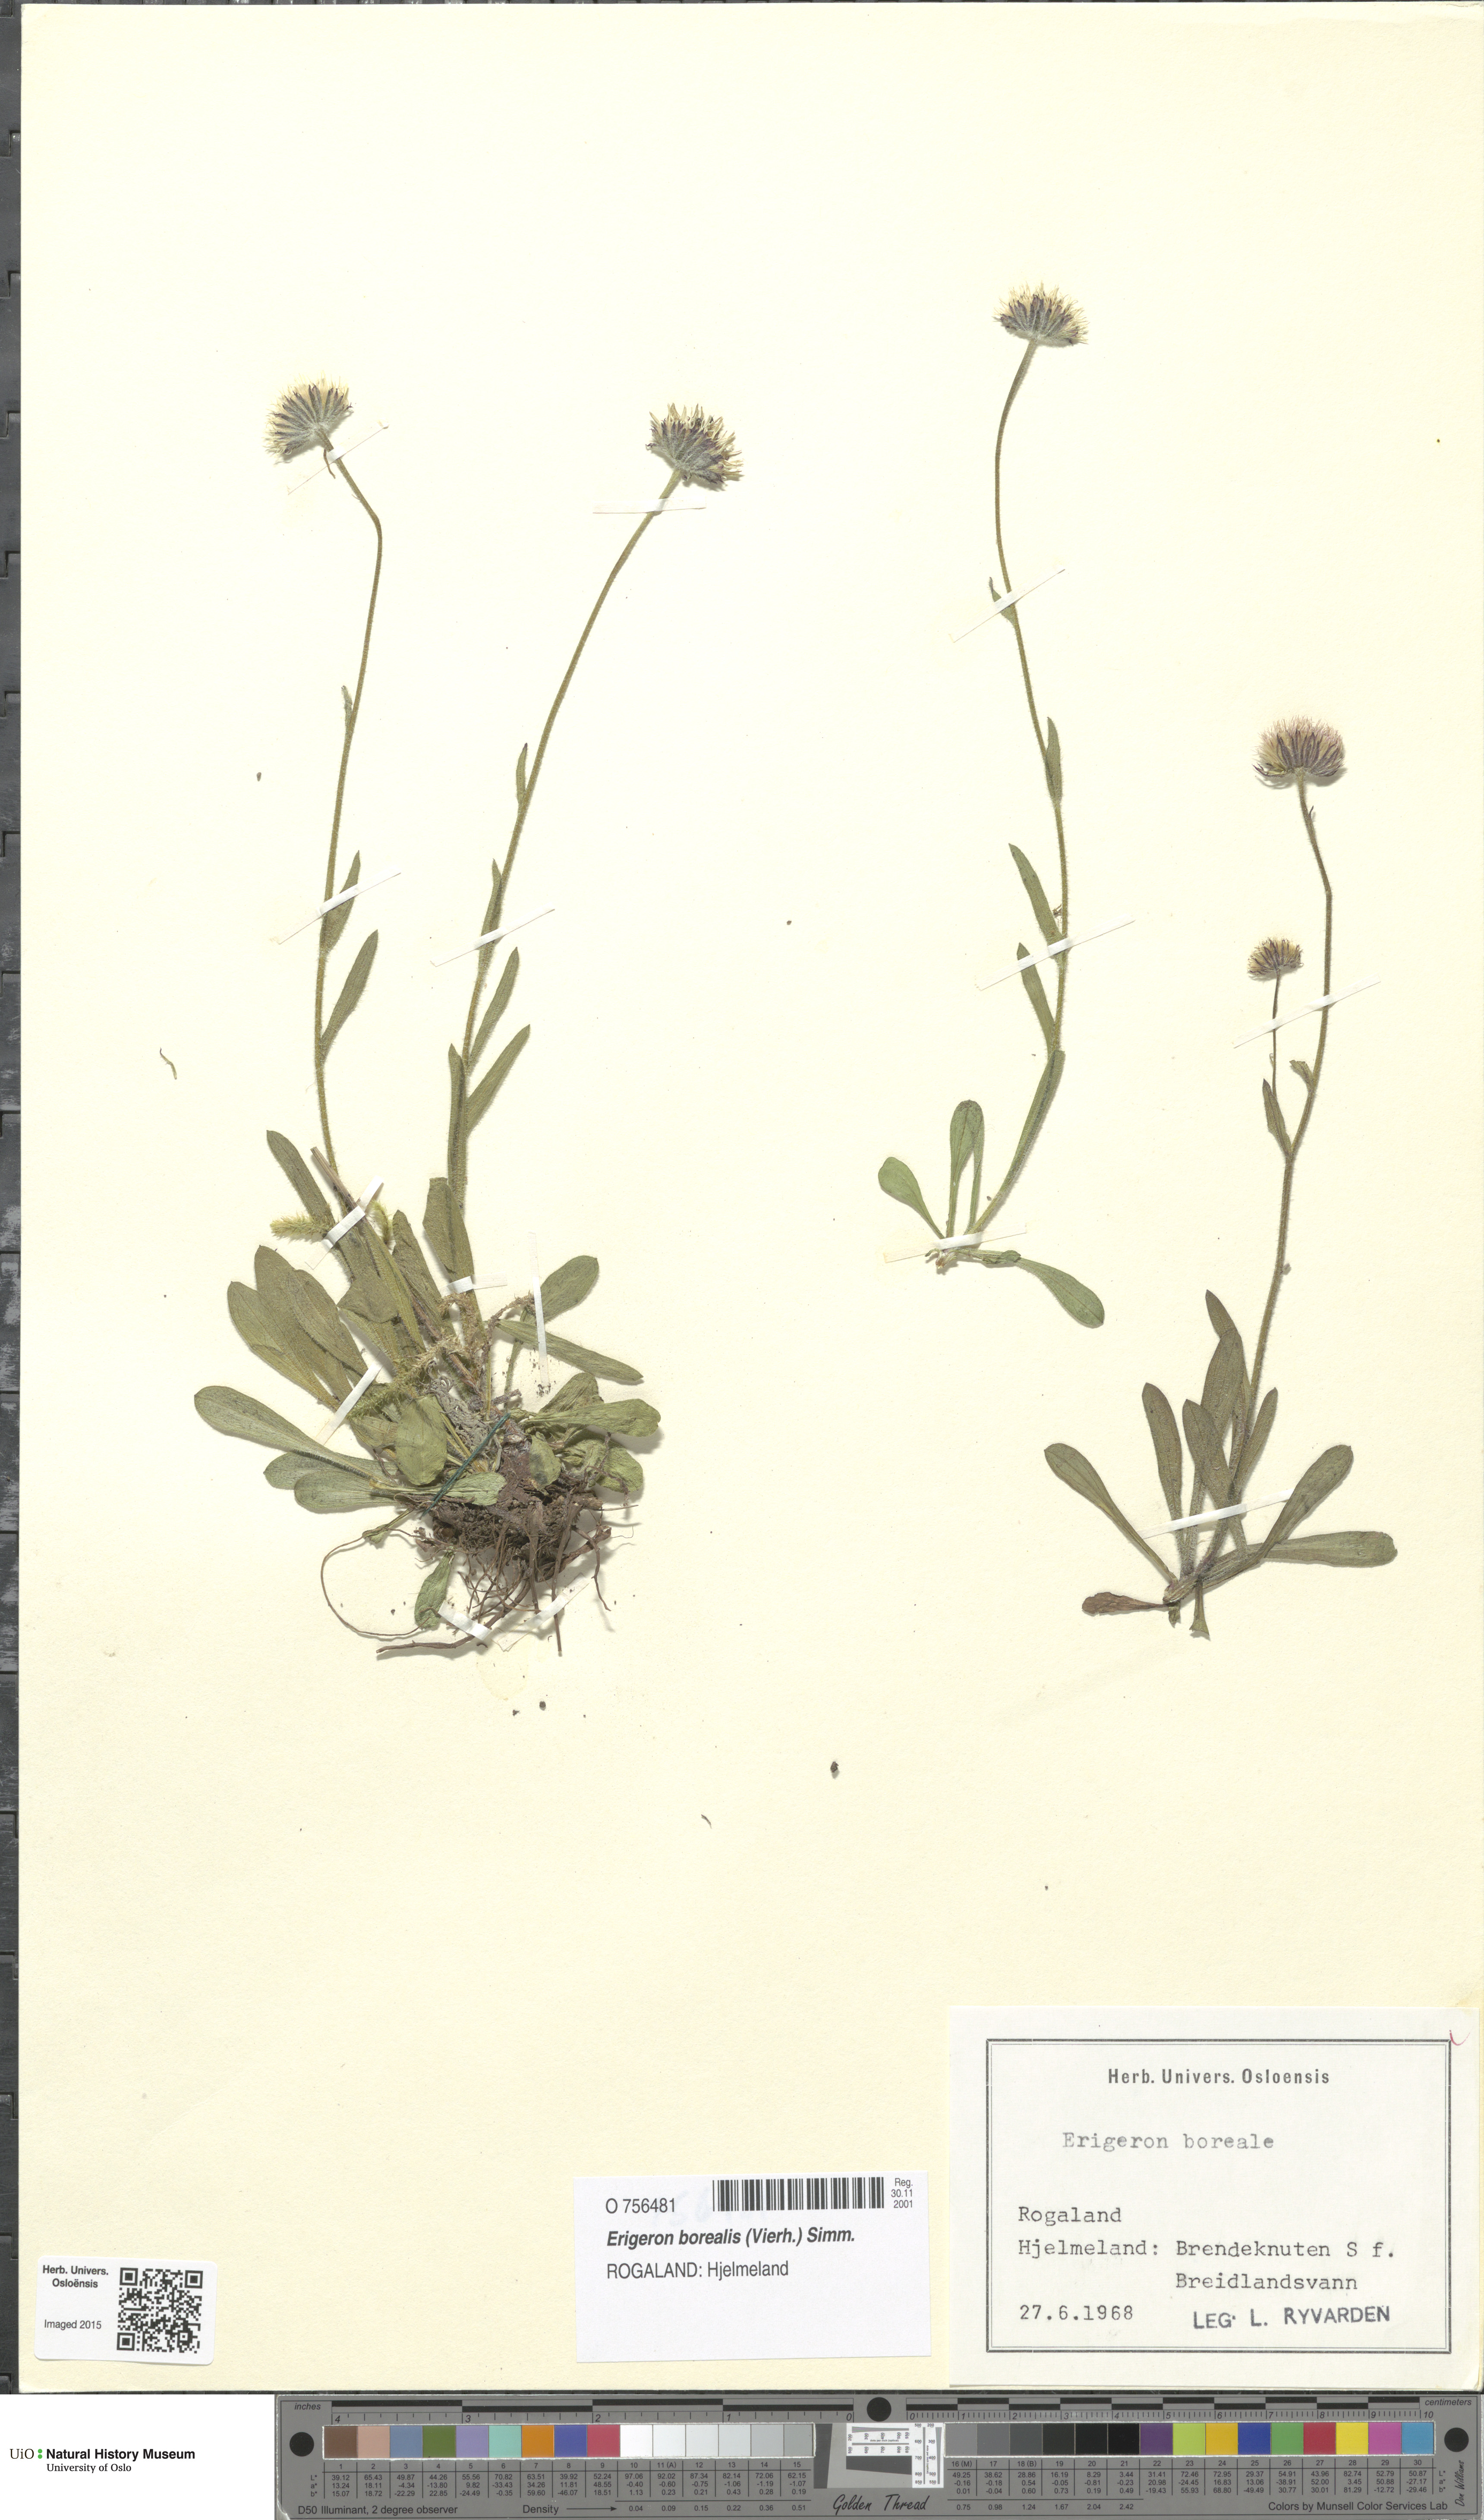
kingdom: Plantae
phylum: Tracheophyta
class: Magnoliopsida
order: Asterales
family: Asteraceae
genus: Erigeron
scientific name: Erigeron borealis
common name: Alpine fleabane
